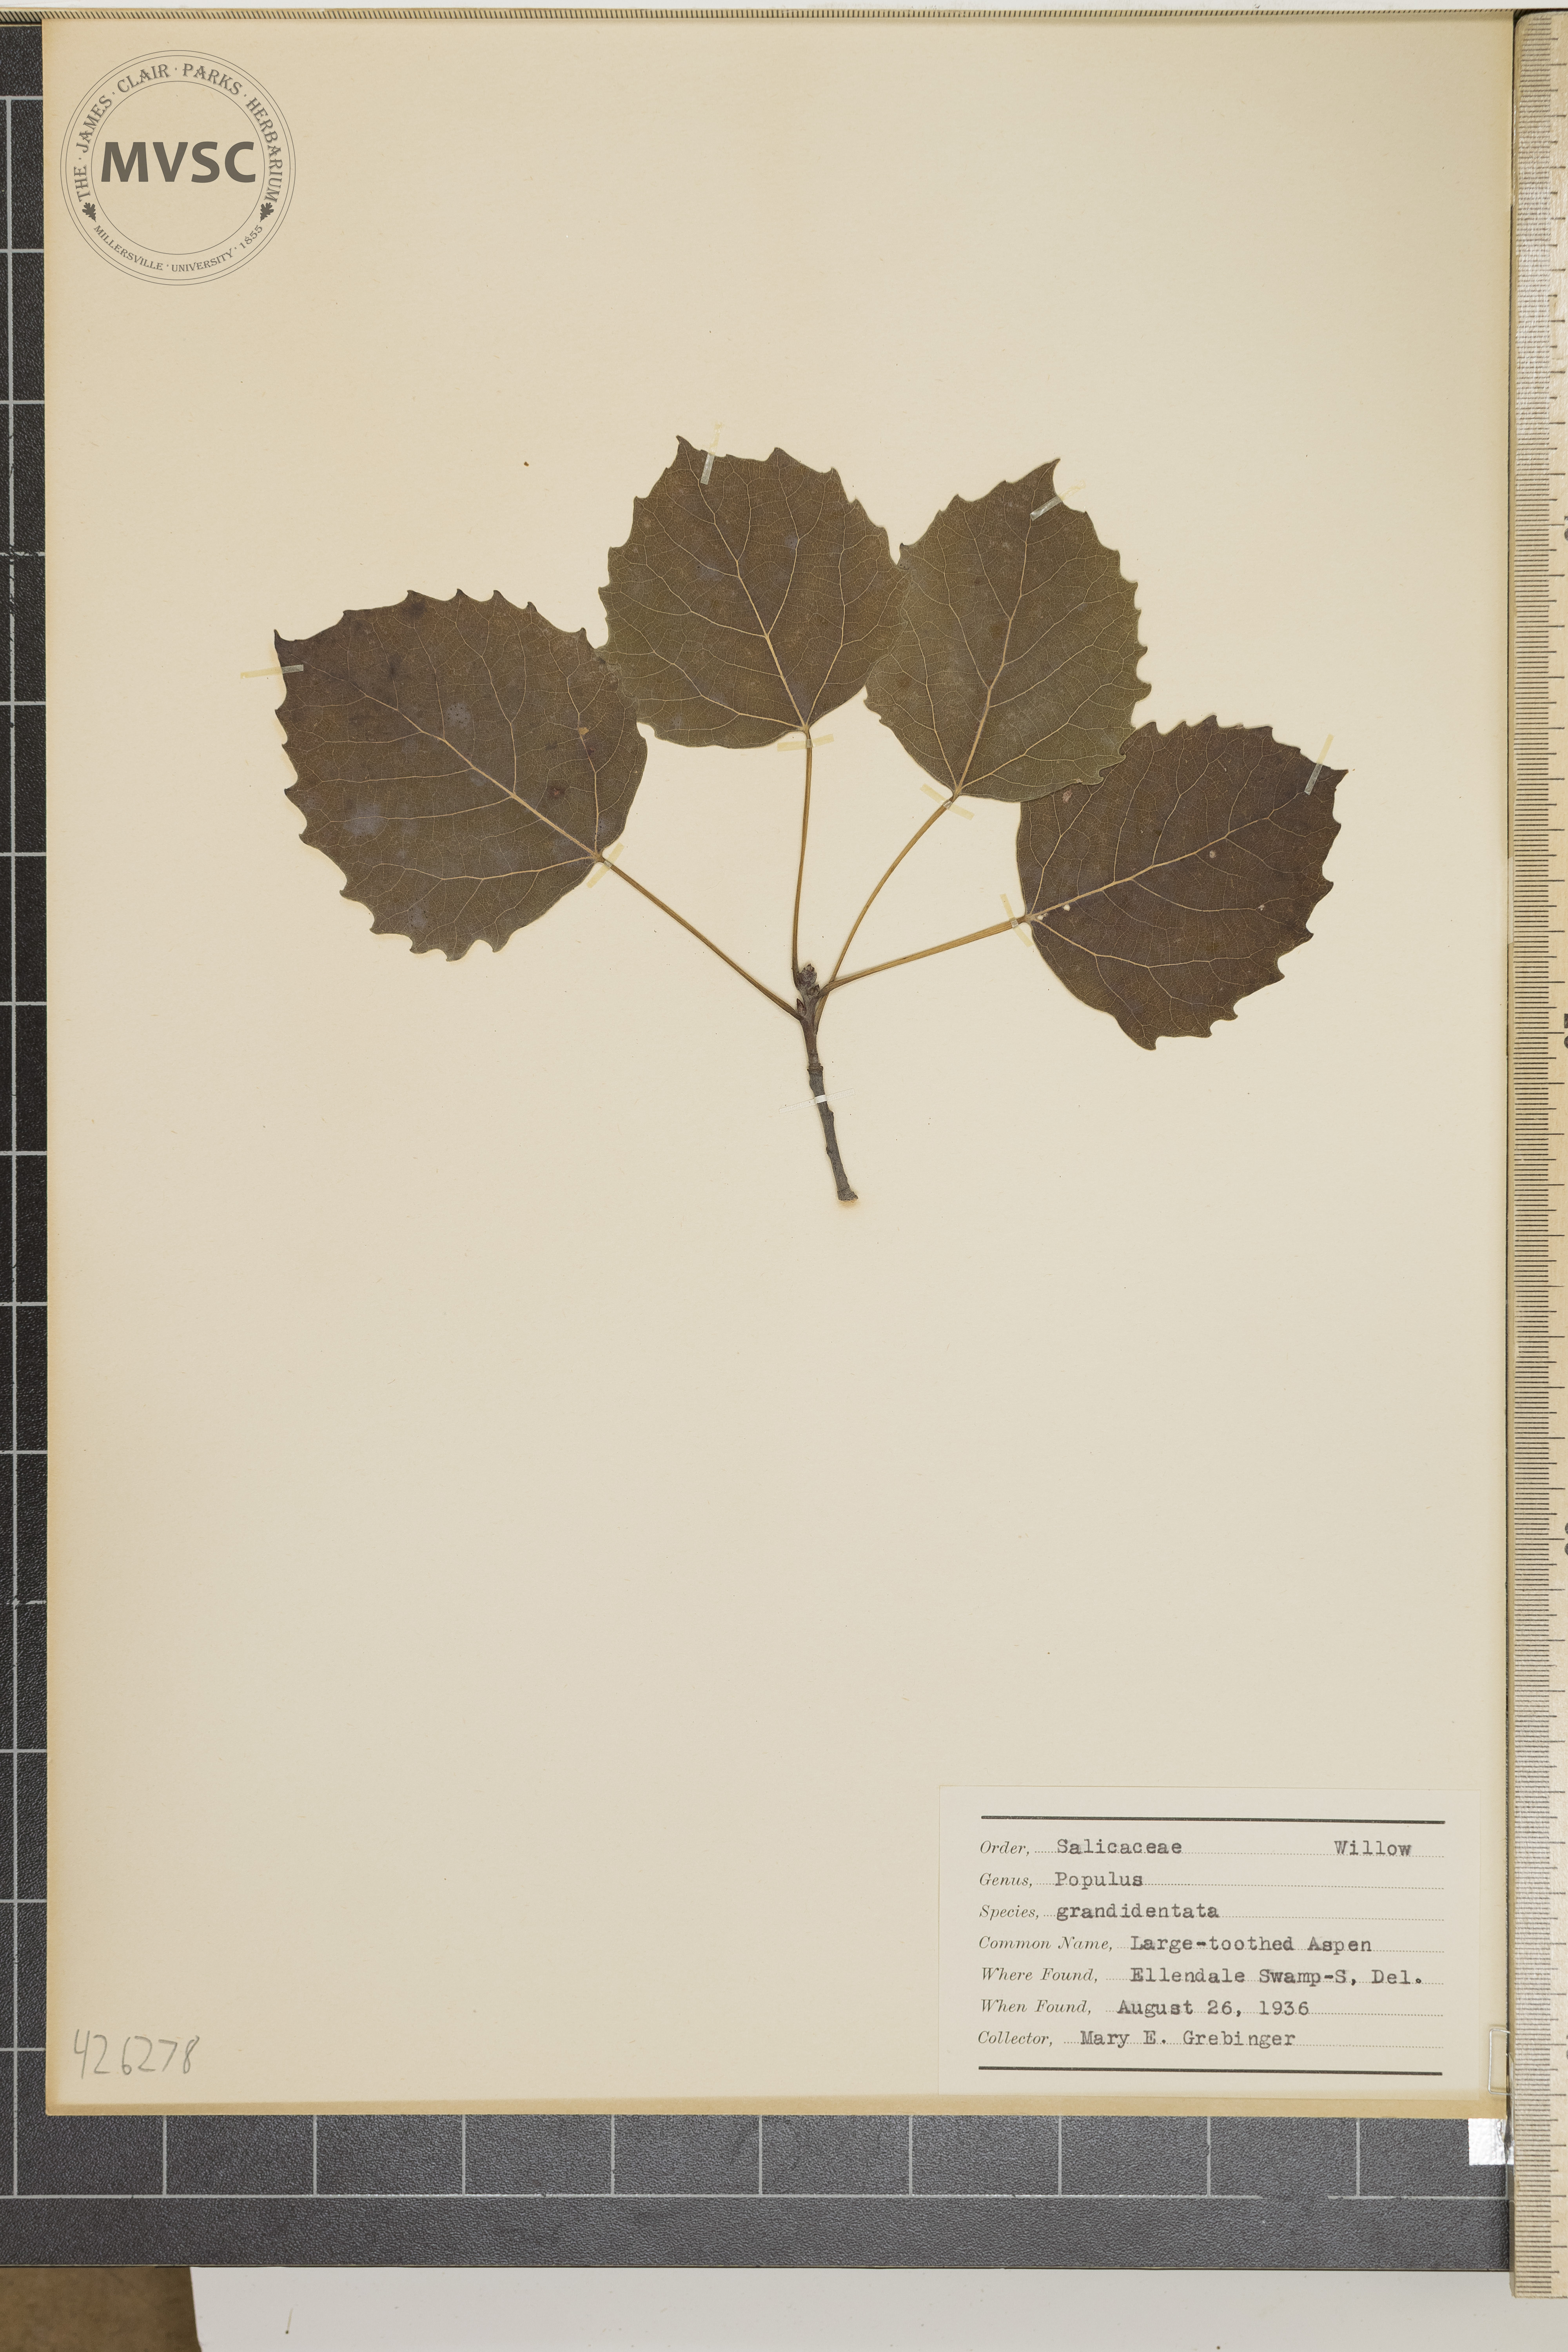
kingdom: Plantae
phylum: Tracheophyta
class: Magnoliopsida
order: Malpighiales
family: Salicaceae
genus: Populus
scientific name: Populus grandidentata
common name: Large-toothed aspen
